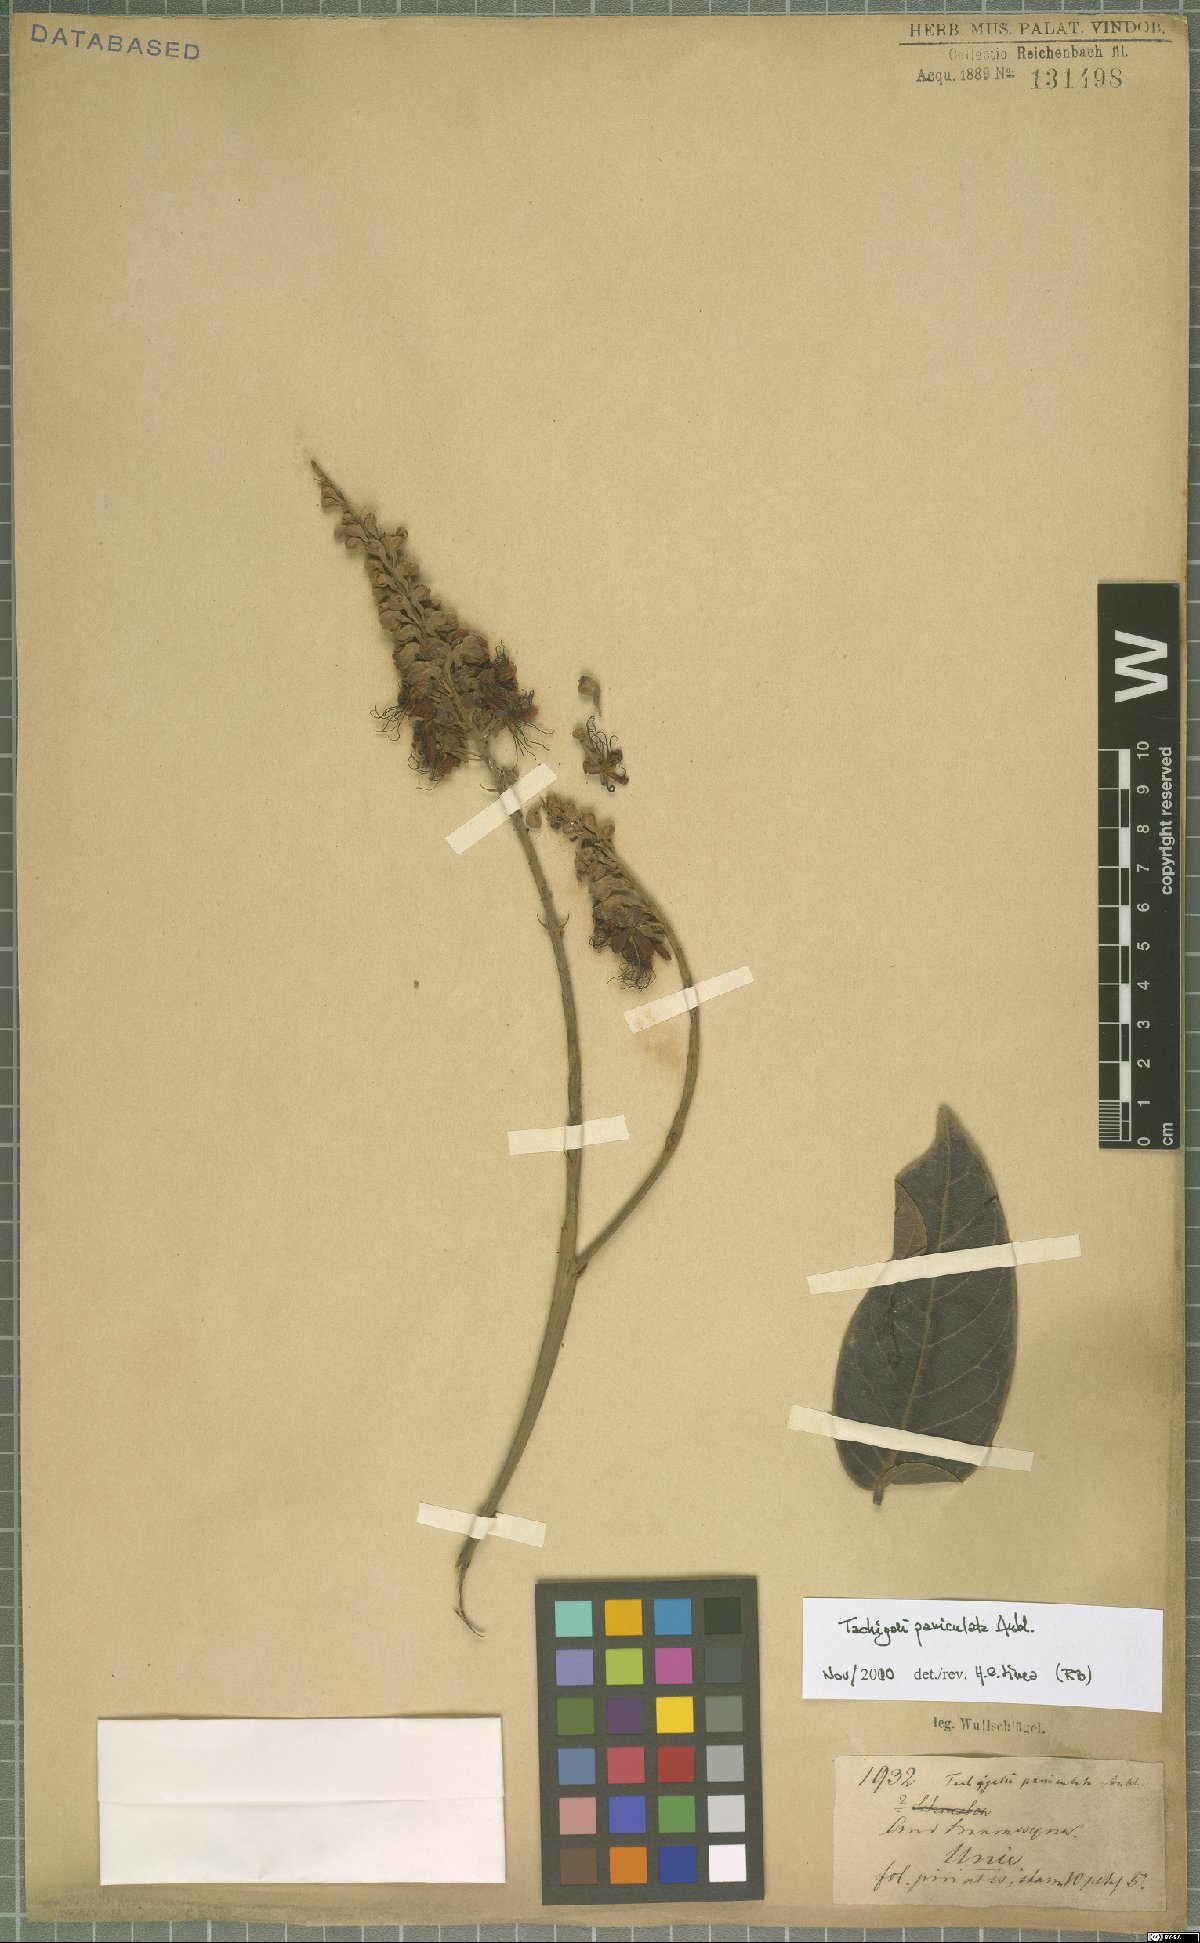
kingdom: Plantae
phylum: Tracheophyta
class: Magnoliopsida
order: Fabales
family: Fabaceae
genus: Tachigali
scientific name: Tachigali paniculata
